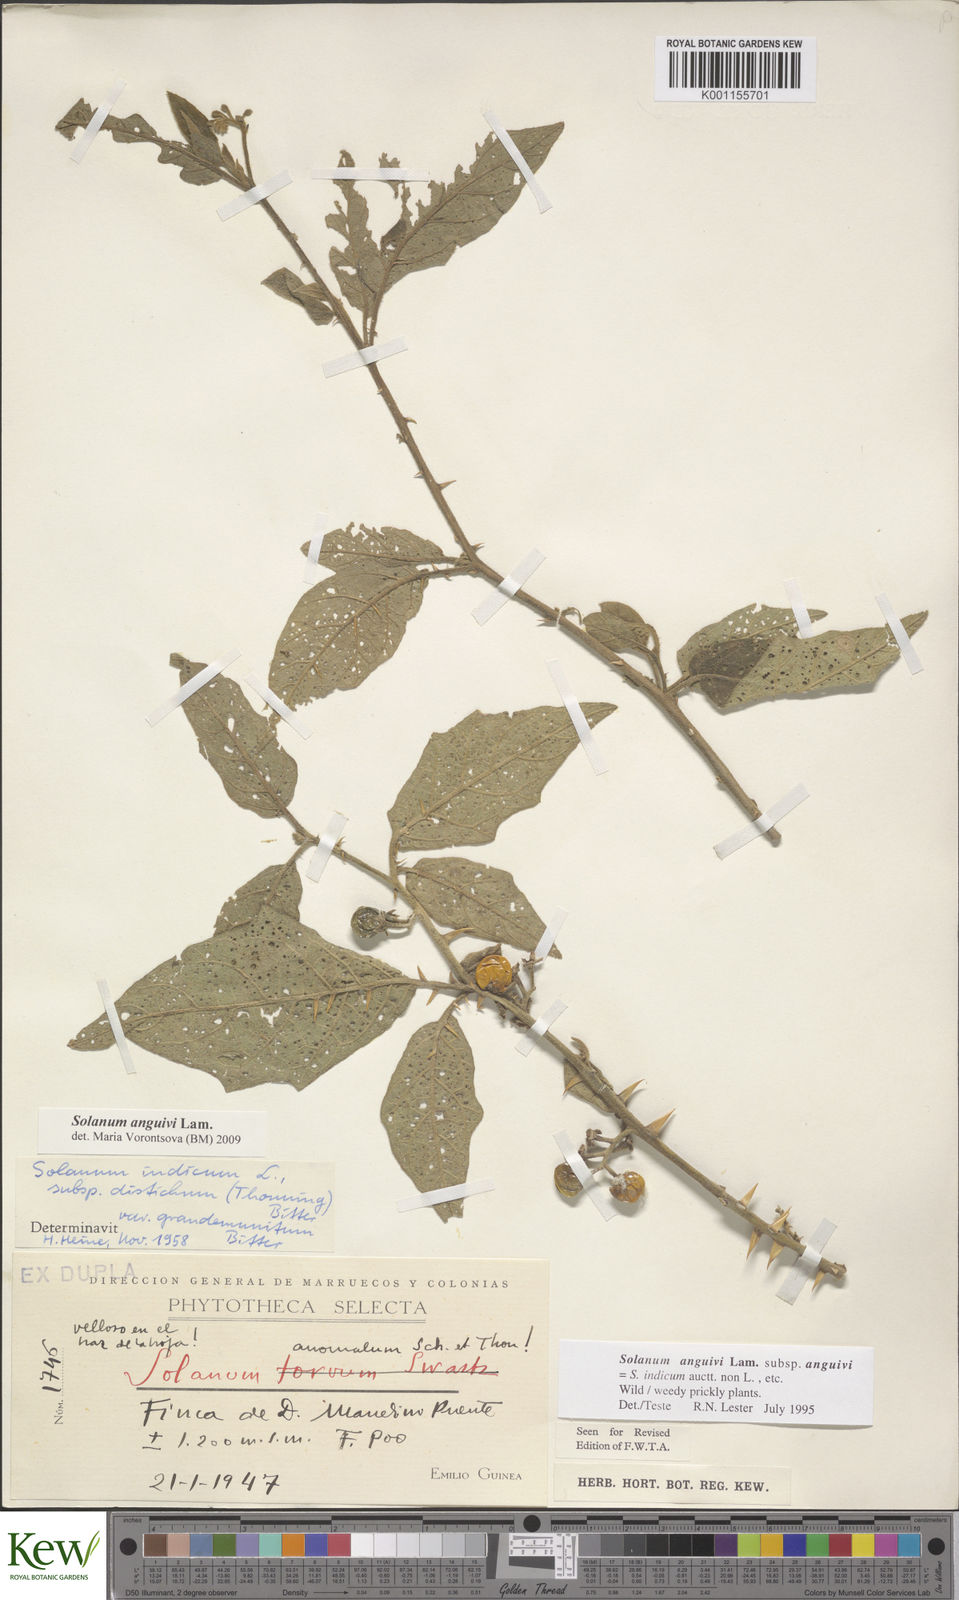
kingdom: Plantae
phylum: Tracheophyta
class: Magnoliopsida
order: Solanales
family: Solanaceae
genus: Solanum
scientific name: Solanum anguivi
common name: Forest bitterberry
